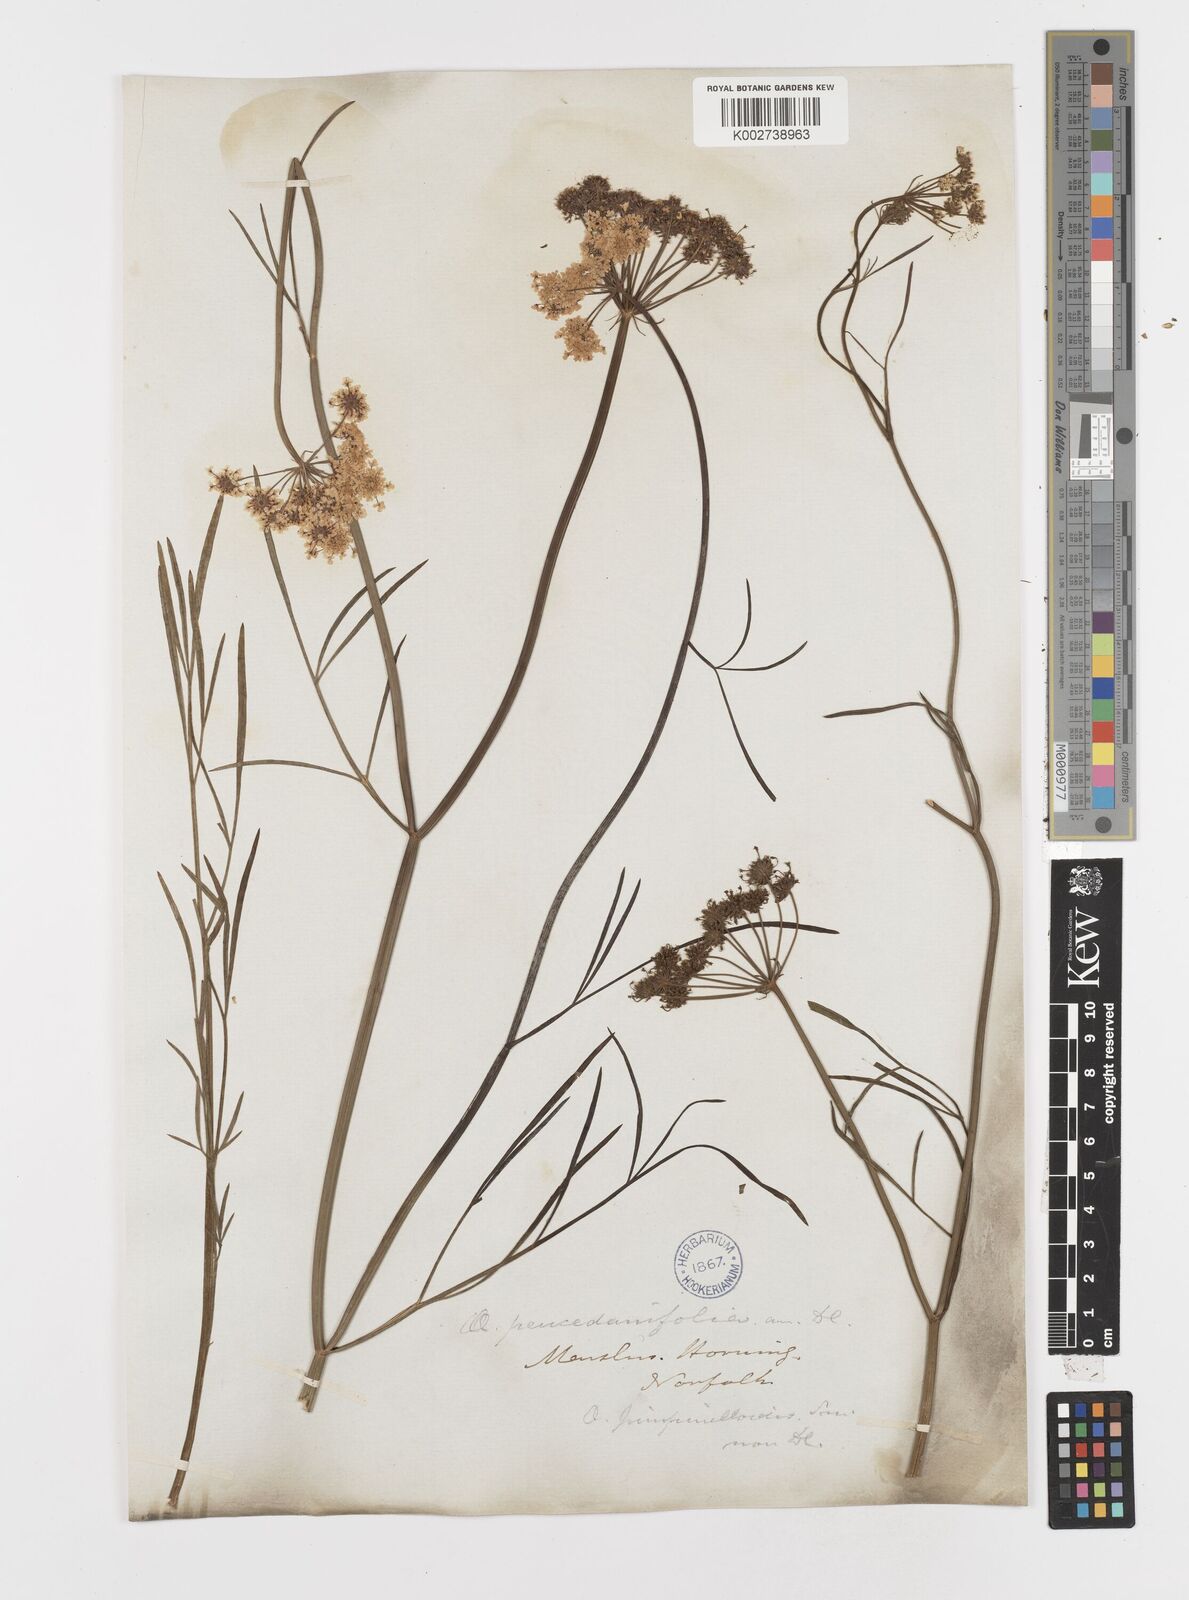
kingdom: Plantae
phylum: Tracheophyta
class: Magnoliopsida
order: Apiales
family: Apiaceae
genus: Oenanthe
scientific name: Oenanthe lachenalii
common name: Parsley water-dropwort
